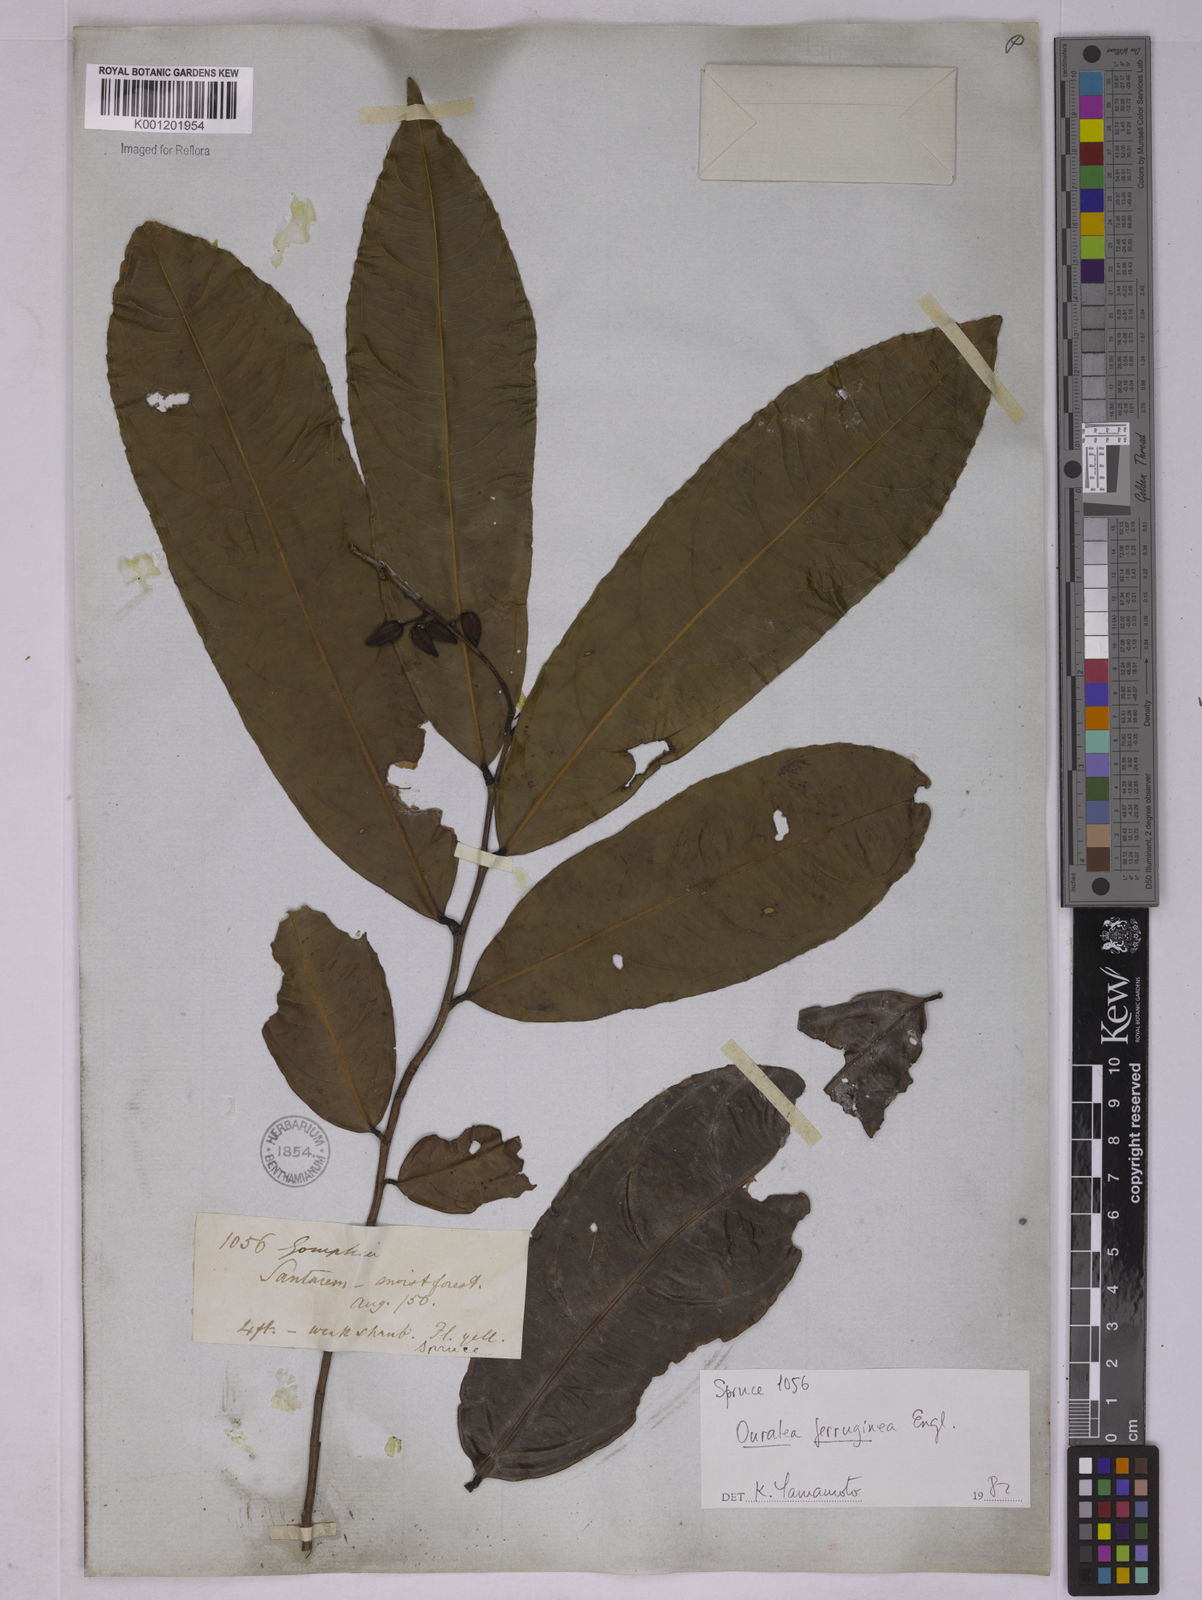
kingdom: Plantae
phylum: Tracheophyta
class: Magnoliopsida
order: Malpighiales
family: Ochnaceae
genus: Ouratea
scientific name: Ouratea ferruginea
